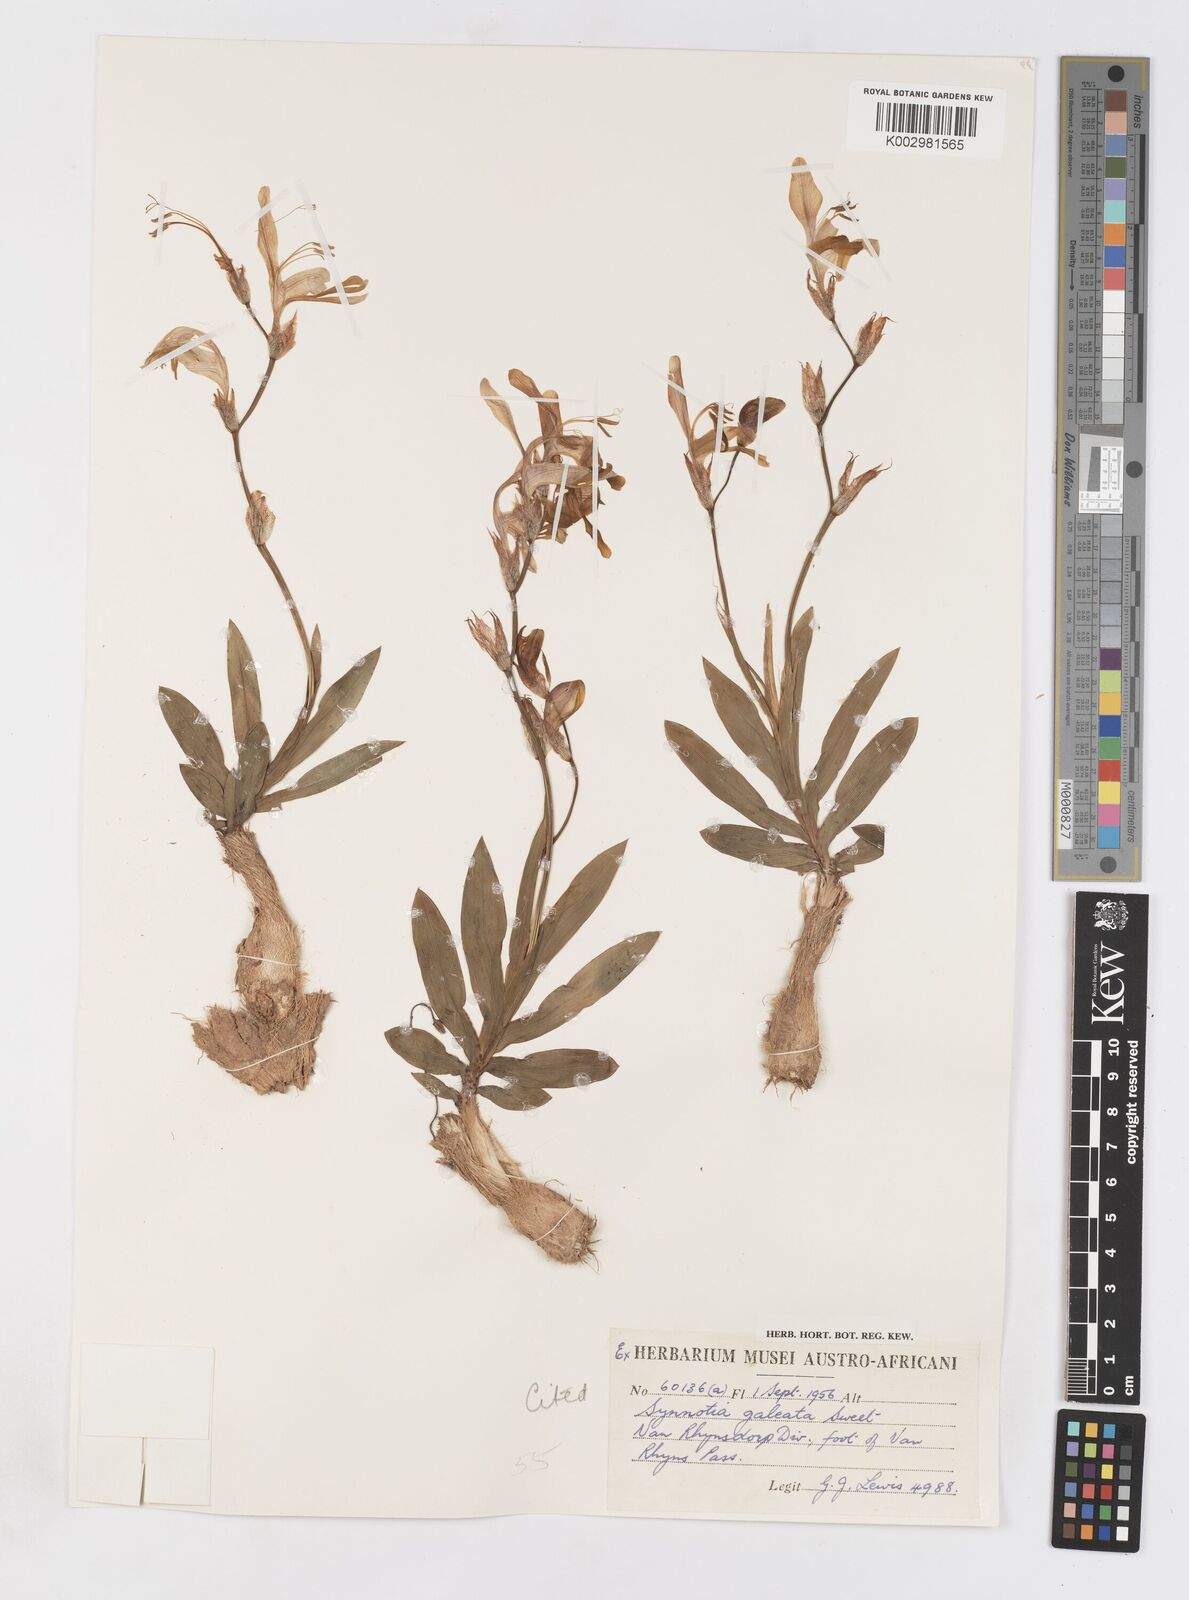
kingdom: Plantae
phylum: Tracheophyta
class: Liliopsida
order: Asparagales
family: Iridaceae
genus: Sparaxis
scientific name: Sparaxis
